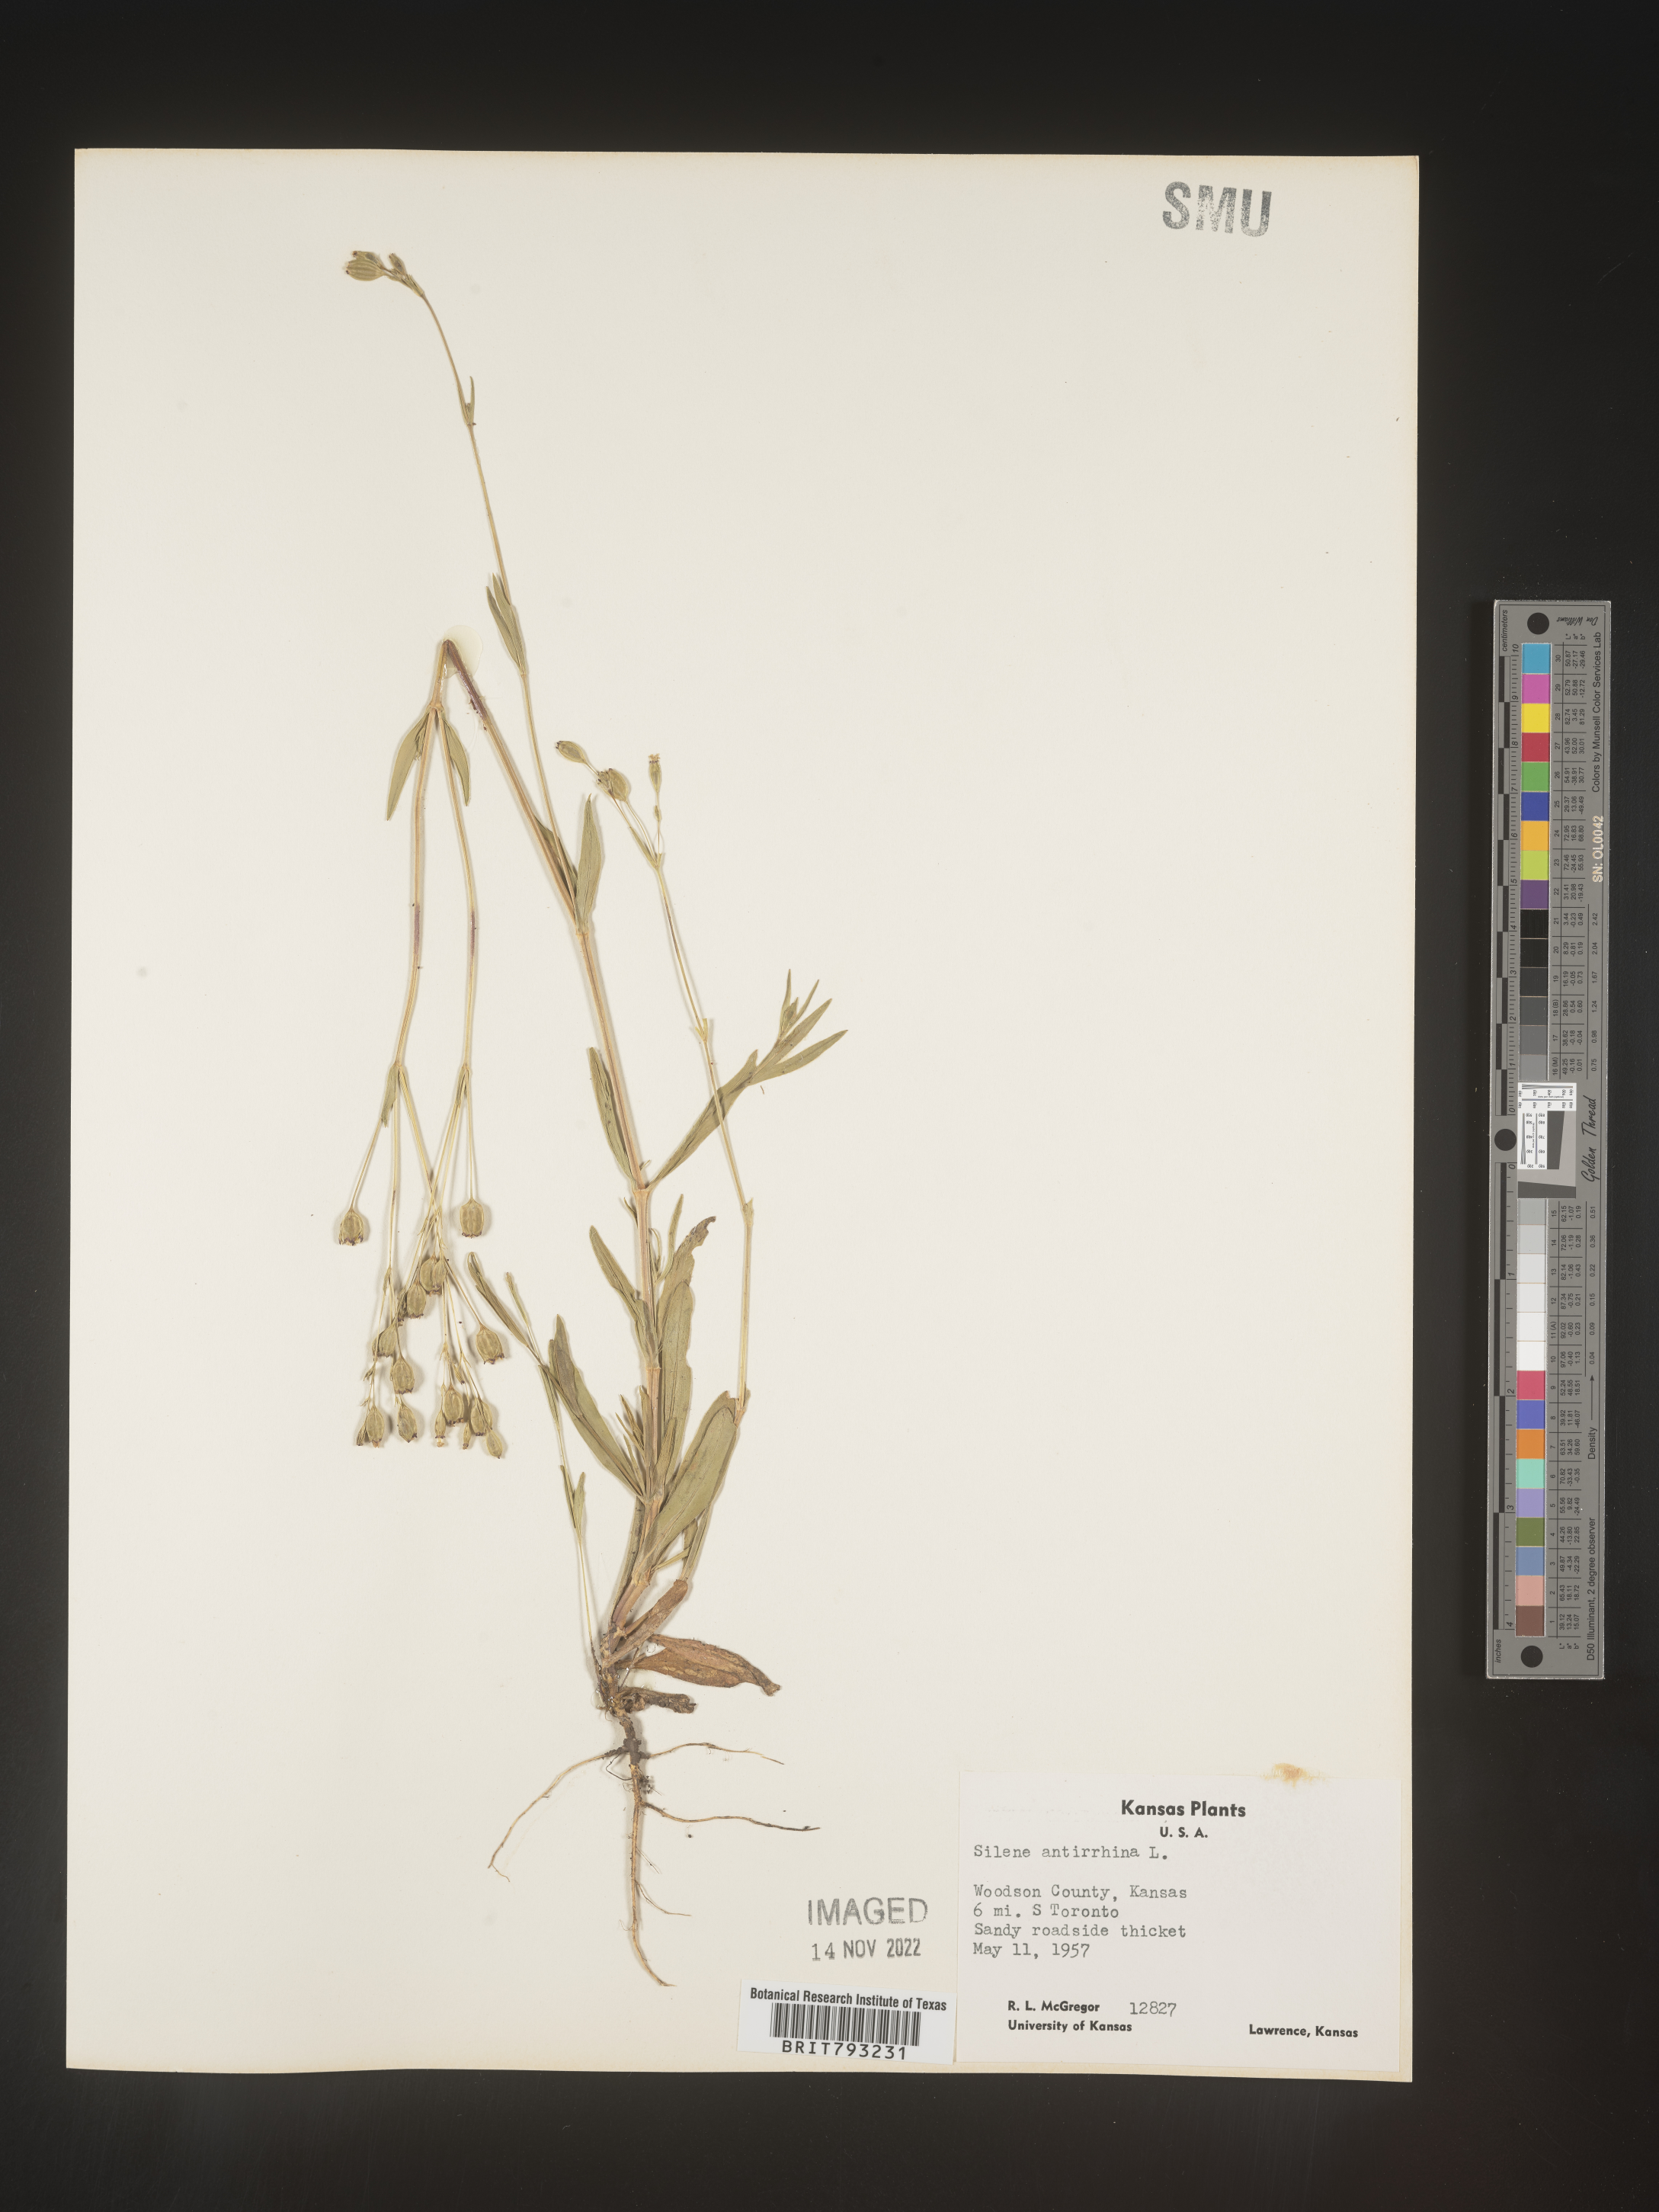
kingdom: Plantae
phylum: Tracheophyta
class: Magnoliopsida
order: Caryophyllales
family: Caryophyllaceae
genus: Silene
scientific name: Silene antirrhina
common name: Sleepy catchfly
